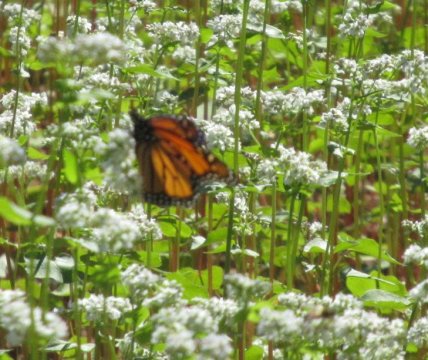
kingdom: Animalia
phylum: Arthropoda
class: Insecta
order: Lepidoptera
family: Nymphalidae
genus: Danaus
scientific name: Danaus plexippus
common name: Monarch
